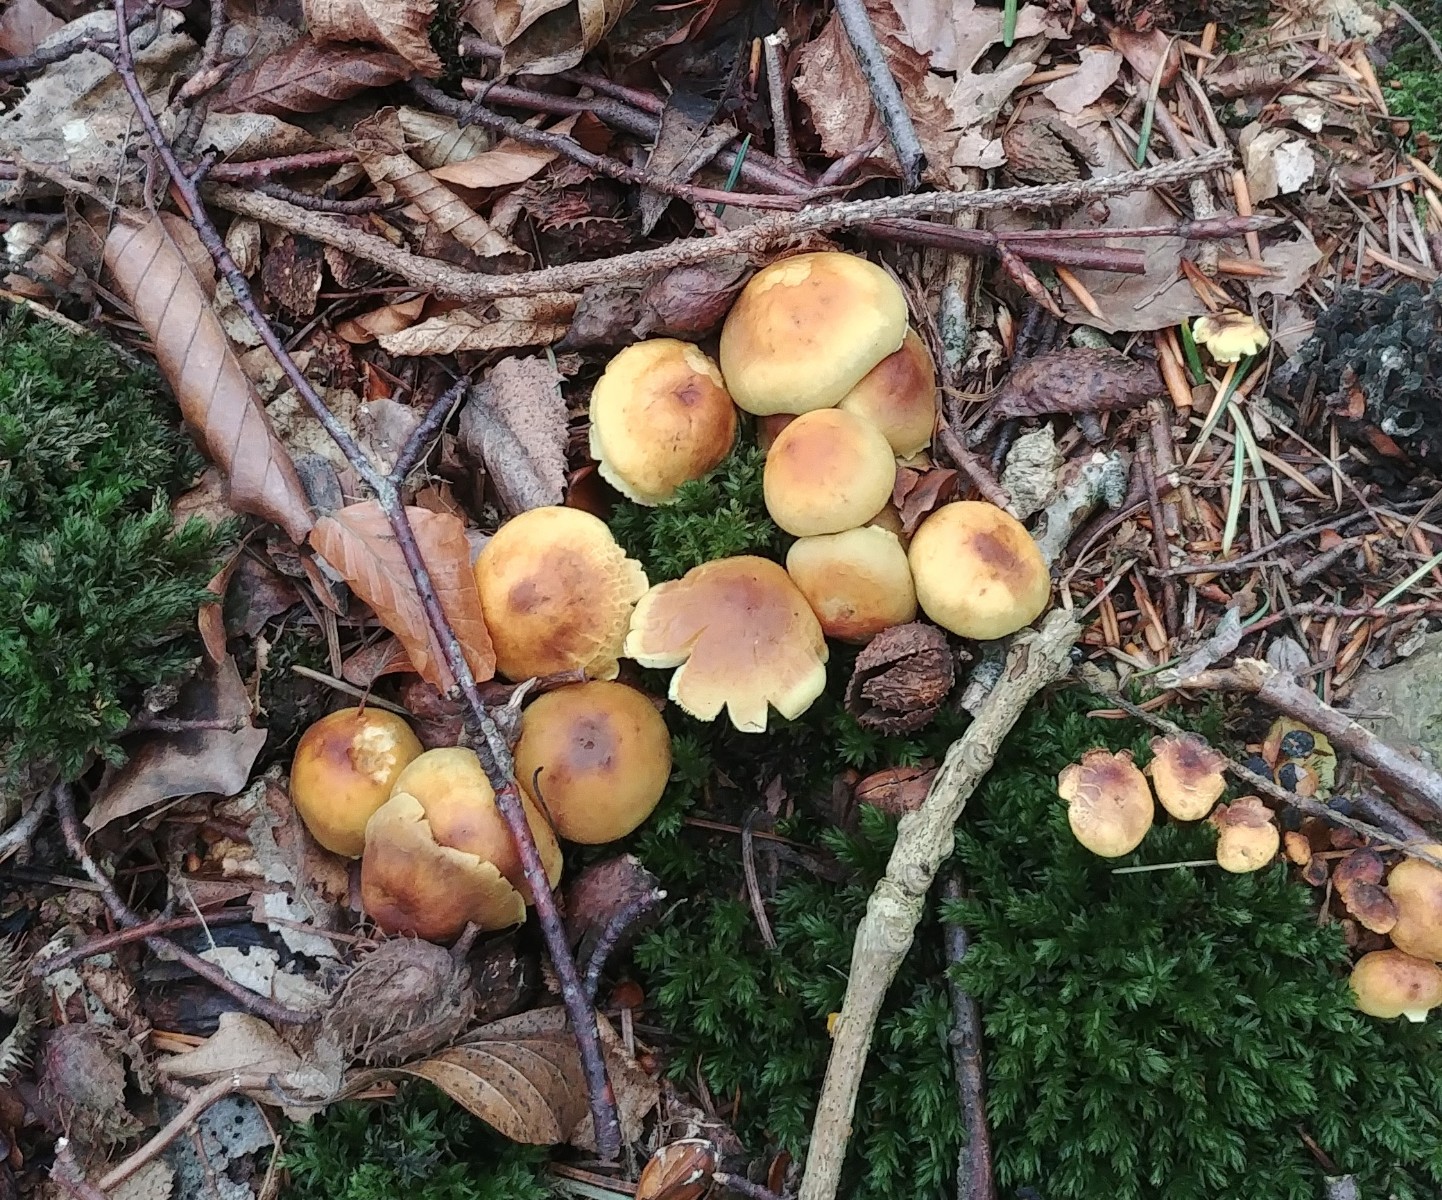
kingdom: Fungi
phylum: Basidiomycota
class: Agaricomycetes
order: Agaricales
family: Strophariaceae
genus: Hypholoma
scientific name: Hypholoma fasciculare
